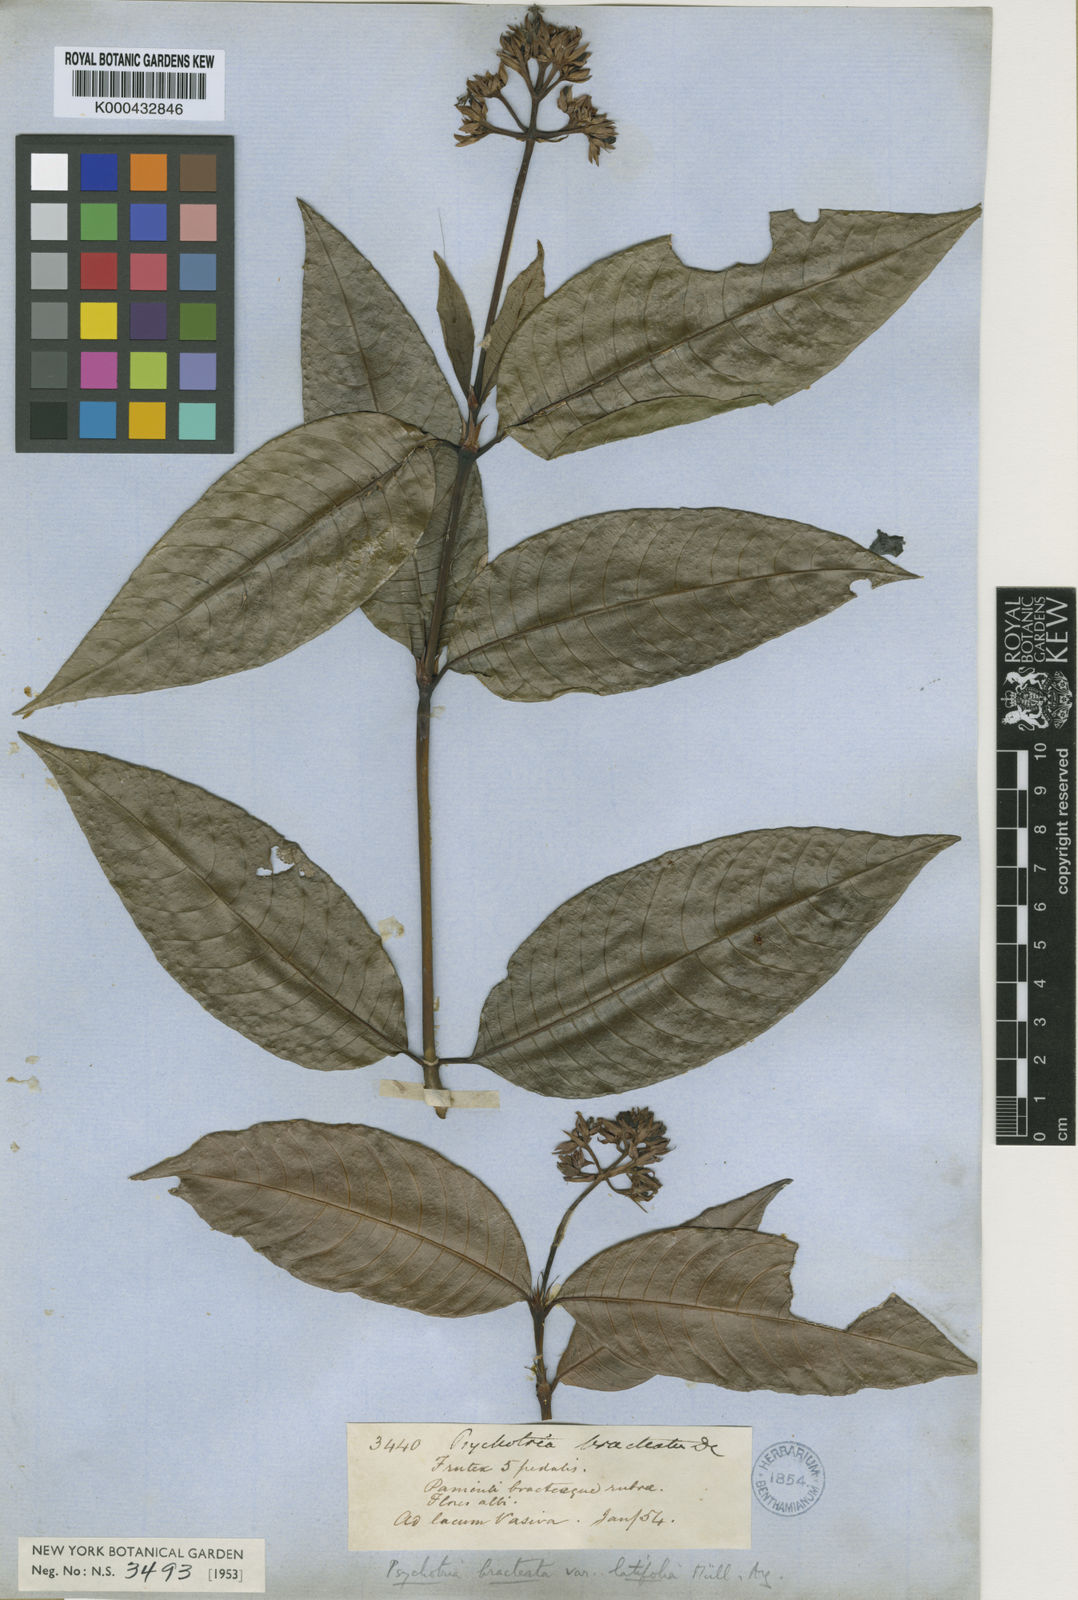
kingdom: Plantae
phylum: Tracheophyta
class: Magnoliopsida
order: Gentianales
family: Rubiaceae
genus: Palicourea
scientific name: Palicourea maguireorum
